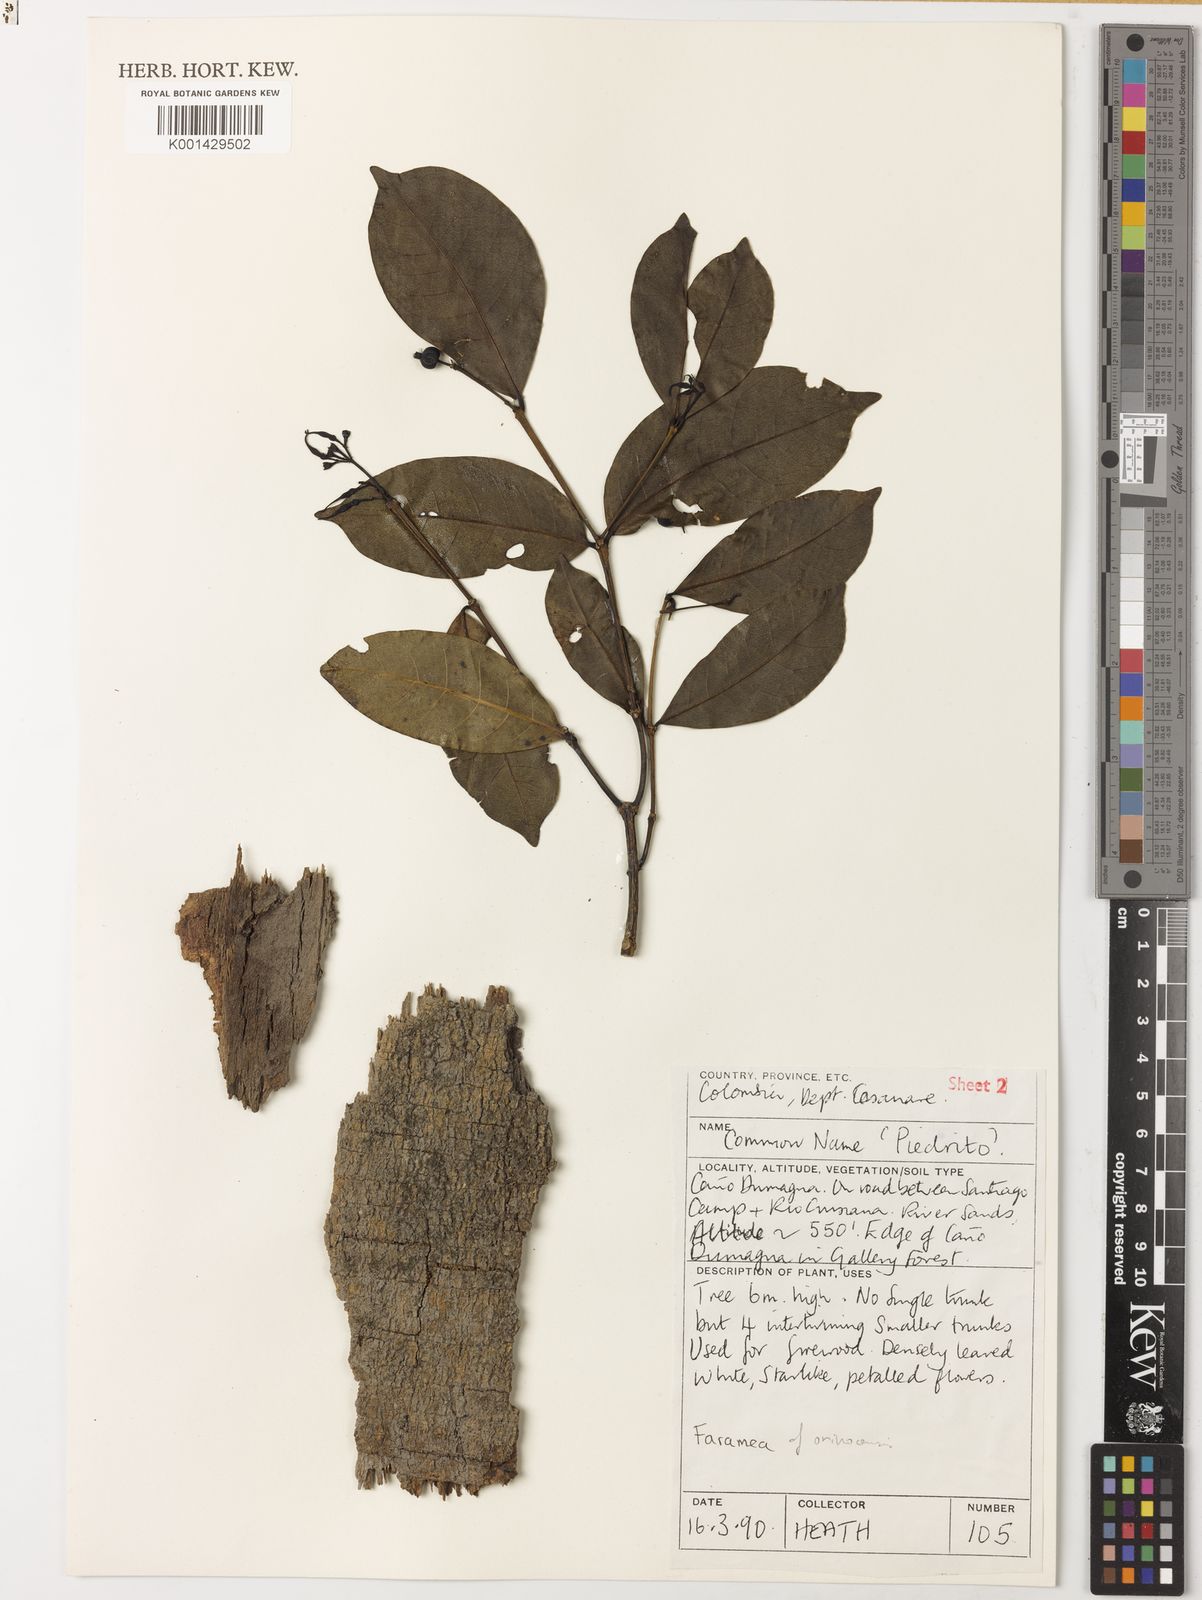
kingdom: Plantae
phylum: Tracheophyta
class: Magnoliopsida
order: Gentianales
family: Rubiaceae
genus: Faramea
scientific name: Faramea orinocencis
